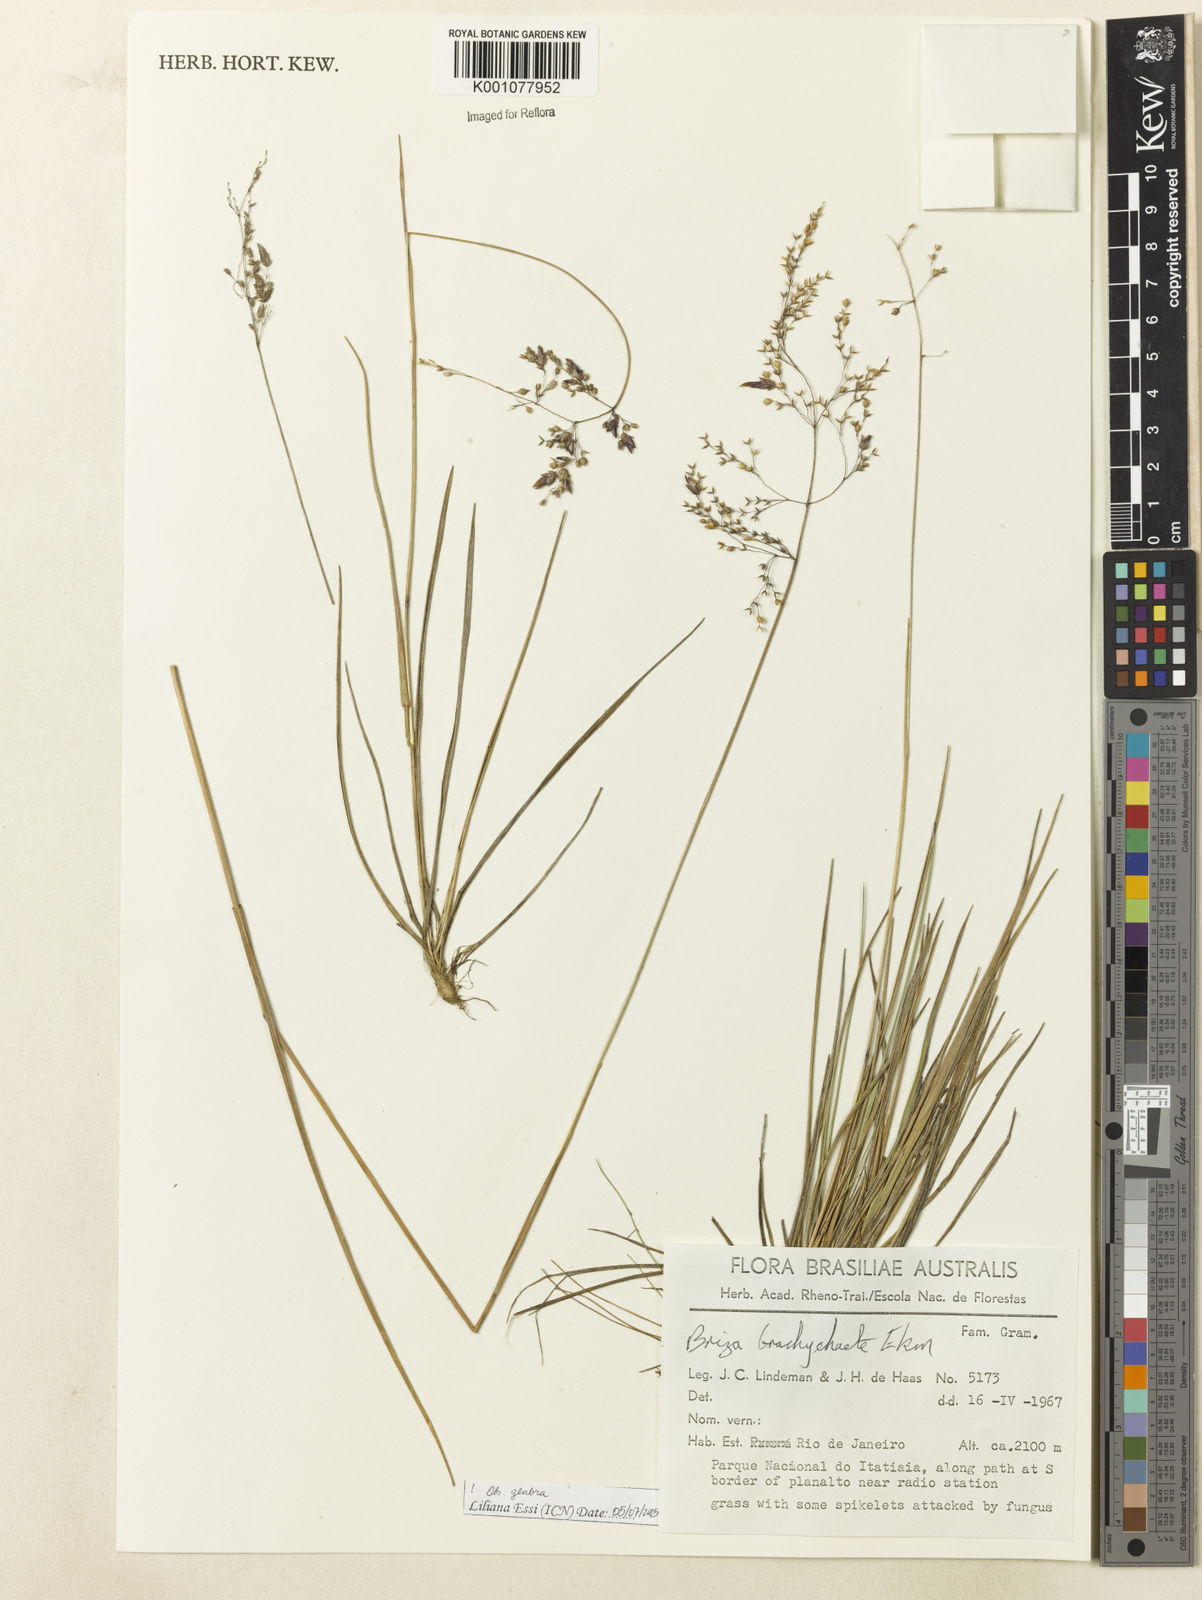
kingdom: Plantae
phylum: Tracheophyta
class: Liliopsida
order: Poales
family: Poaceae
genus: Microbriza
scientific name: Microbriza brachychaete
